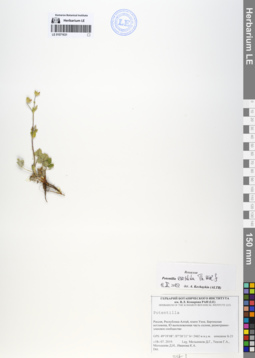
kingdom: Plantae
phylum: Tracheophyta
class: Magnoliopsida
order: Rosales
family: Rosaceae
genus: Potentilla
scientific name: Potentilla evestita
